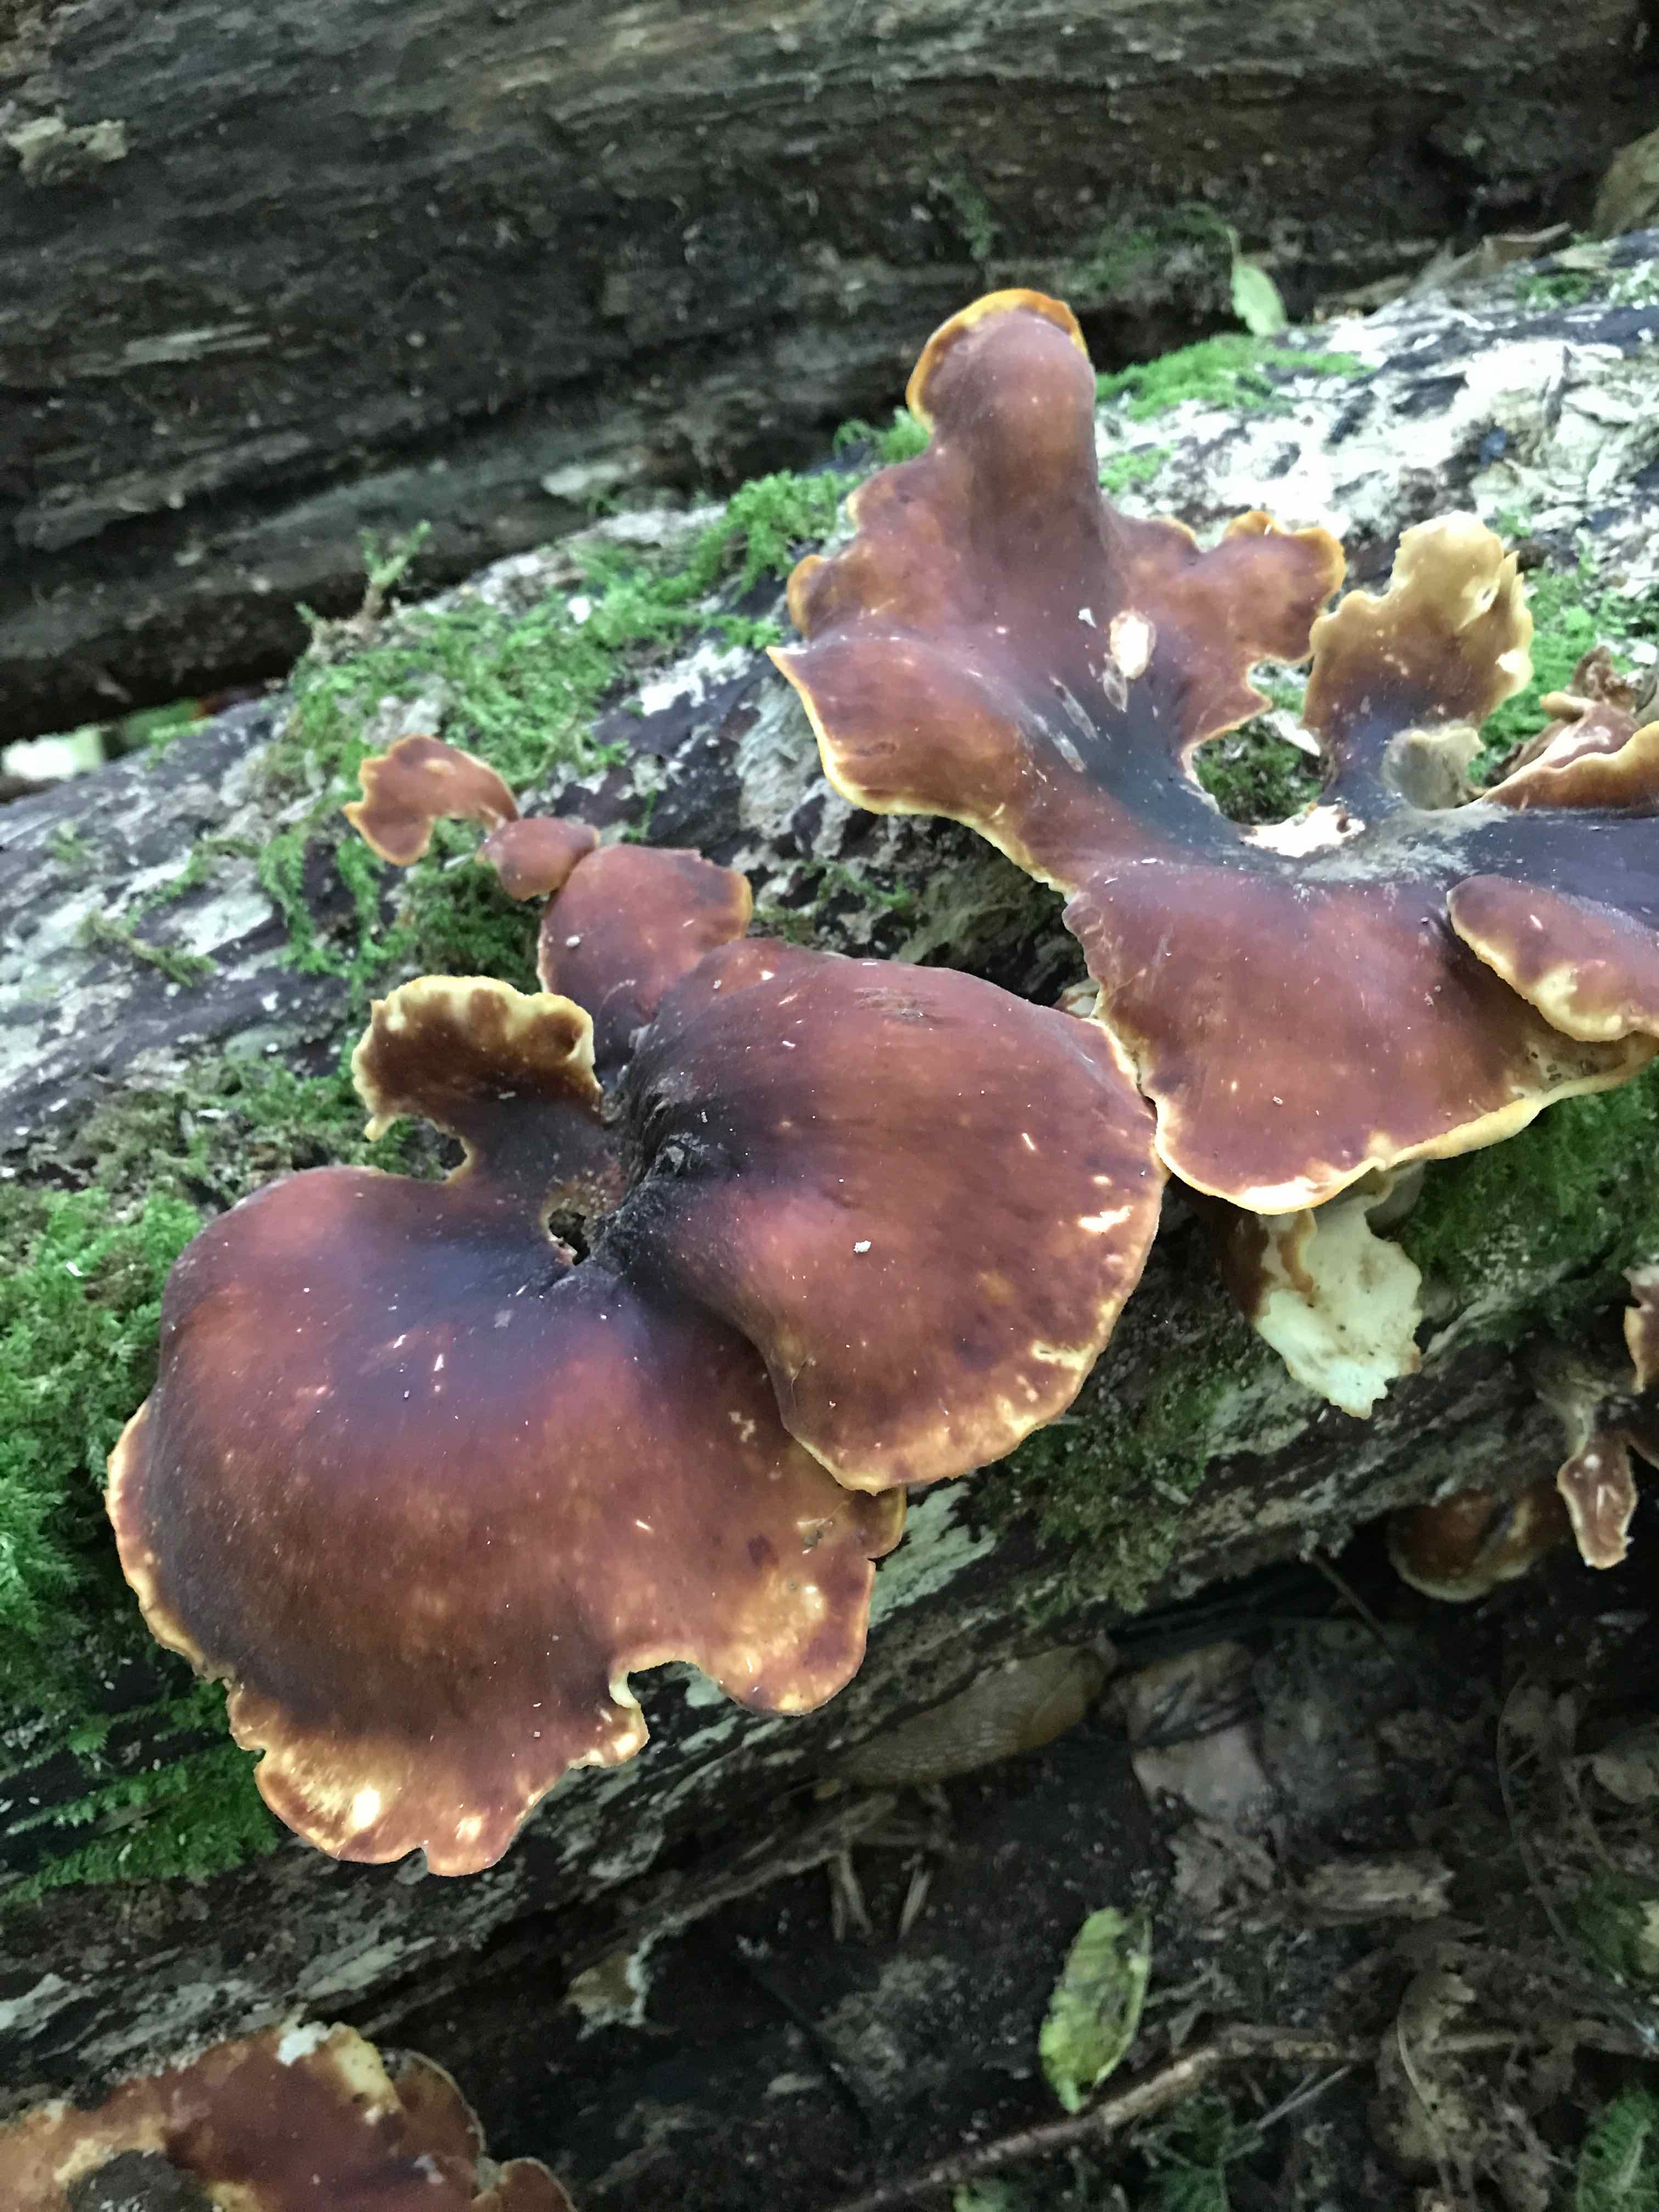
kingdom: Fungi
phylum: Basidiomycota
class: Agaricomycetes
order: Polyporales
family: Polyporaceae
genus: Picipes
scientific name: Picipes badius
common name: kastaniebrun stilkporesvamp
